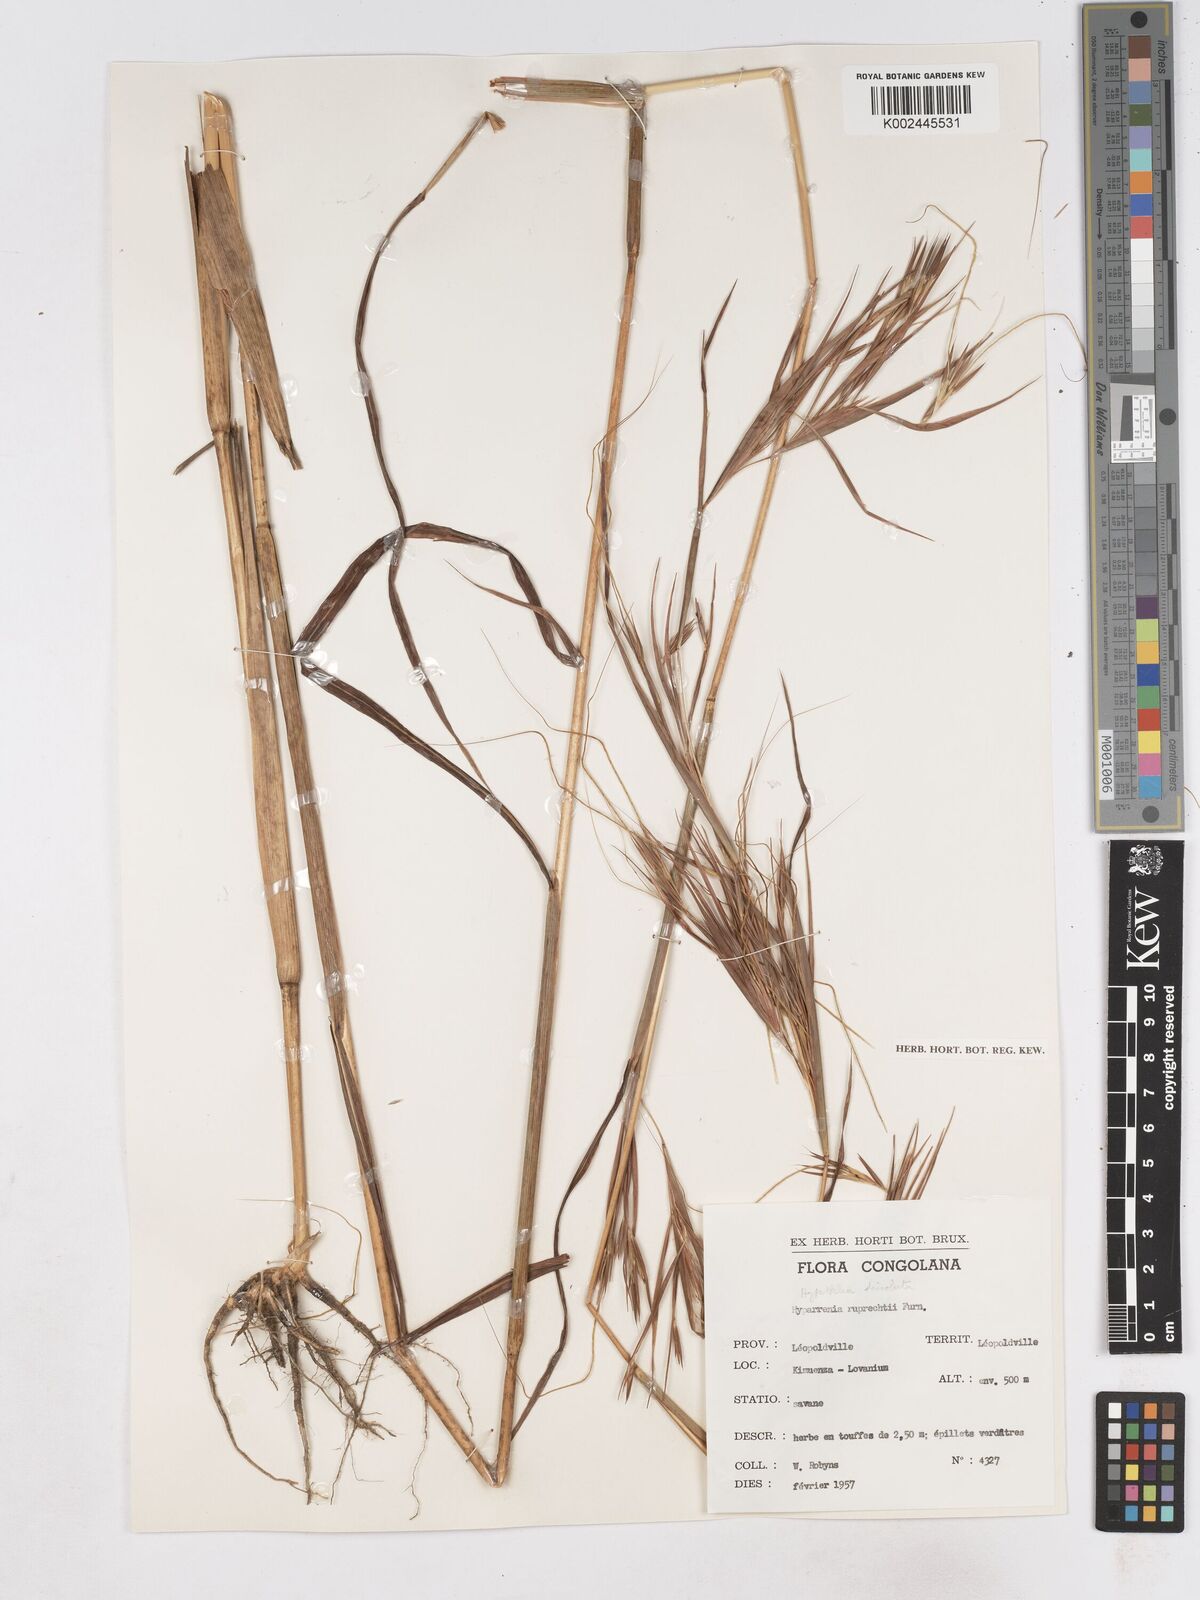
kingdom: Plantae
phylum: Tracheophyta
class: Liliopsida
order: Poales
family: Poaceae
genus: Hyperthelia
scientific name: Hyperthelia dissoluta
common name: Yellow thatching grass
